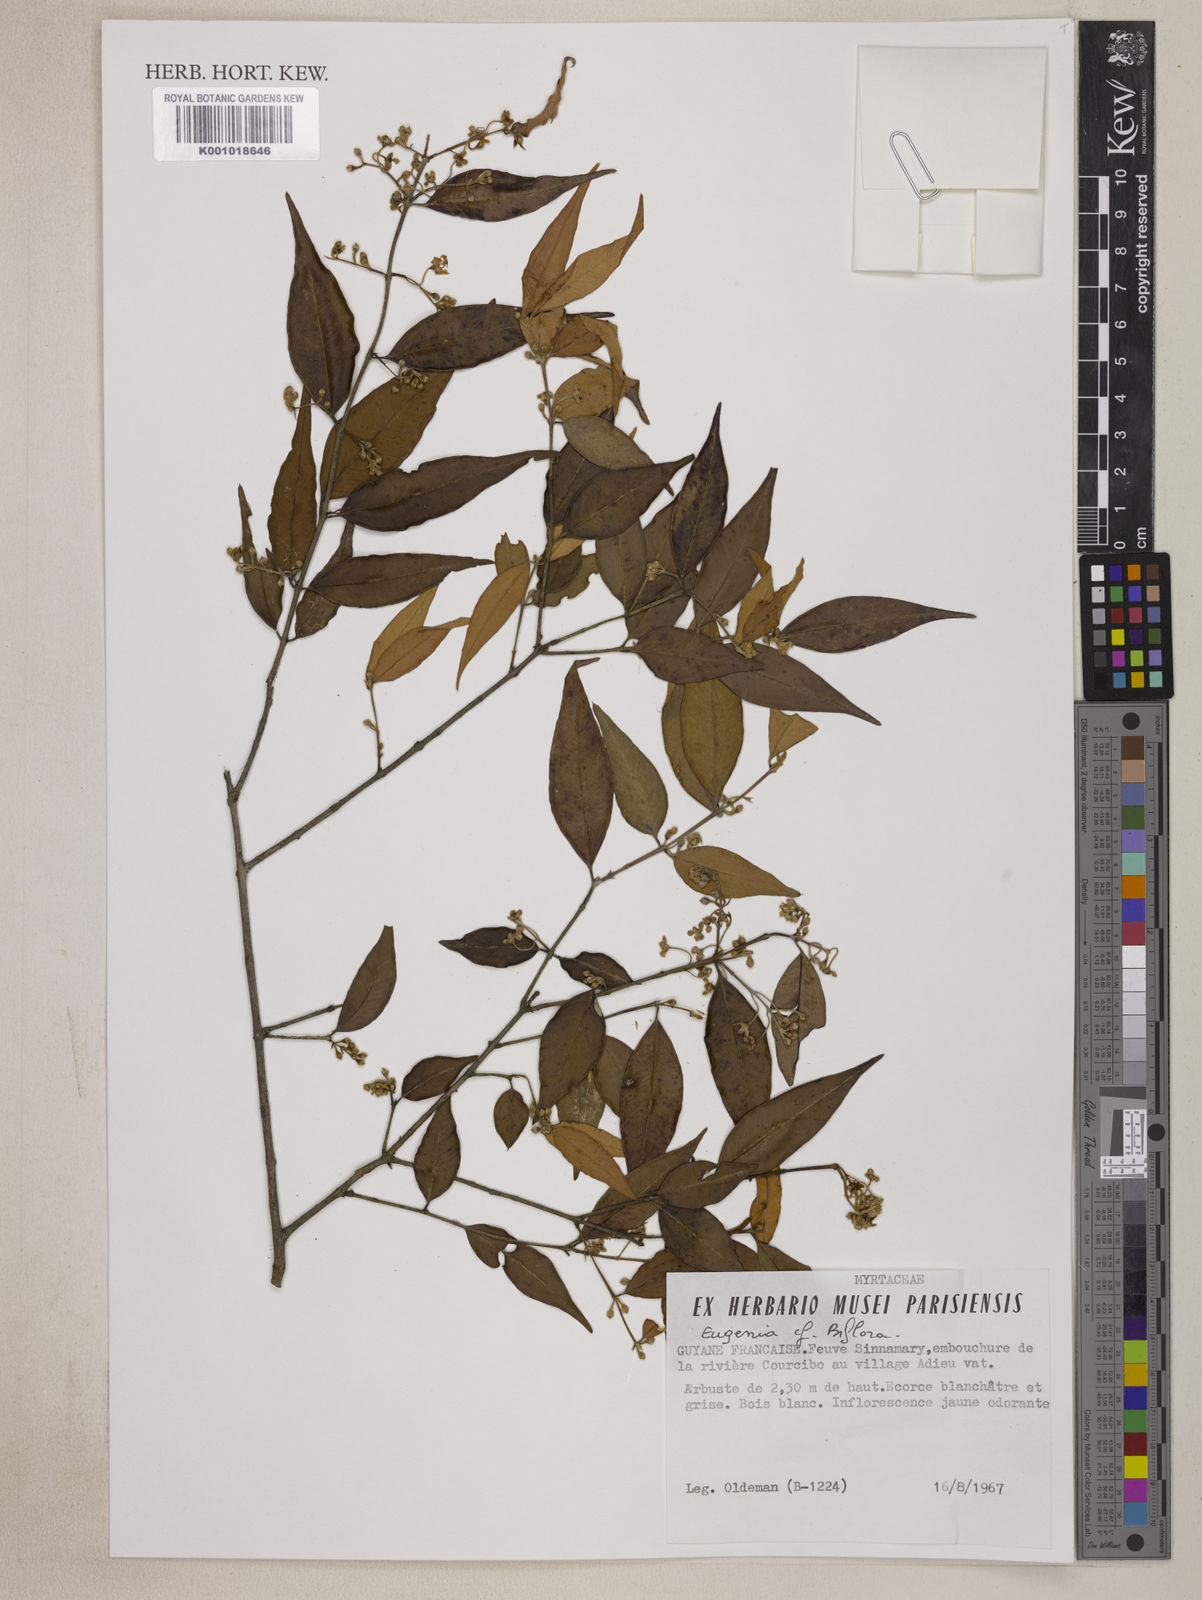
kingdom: Plantae
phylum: Tracheophyta
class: Magnoliopsida
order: Myrtales
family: Myrtaceae
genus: Eugenia
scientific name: Eugenia biflora
